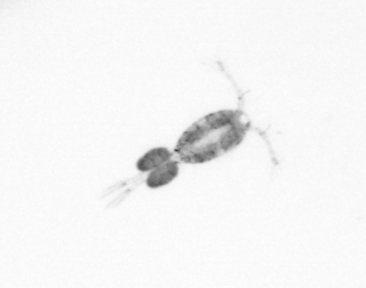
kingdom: Animalia
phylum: Arthropoda
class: Copepoda
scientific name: Copepoda
